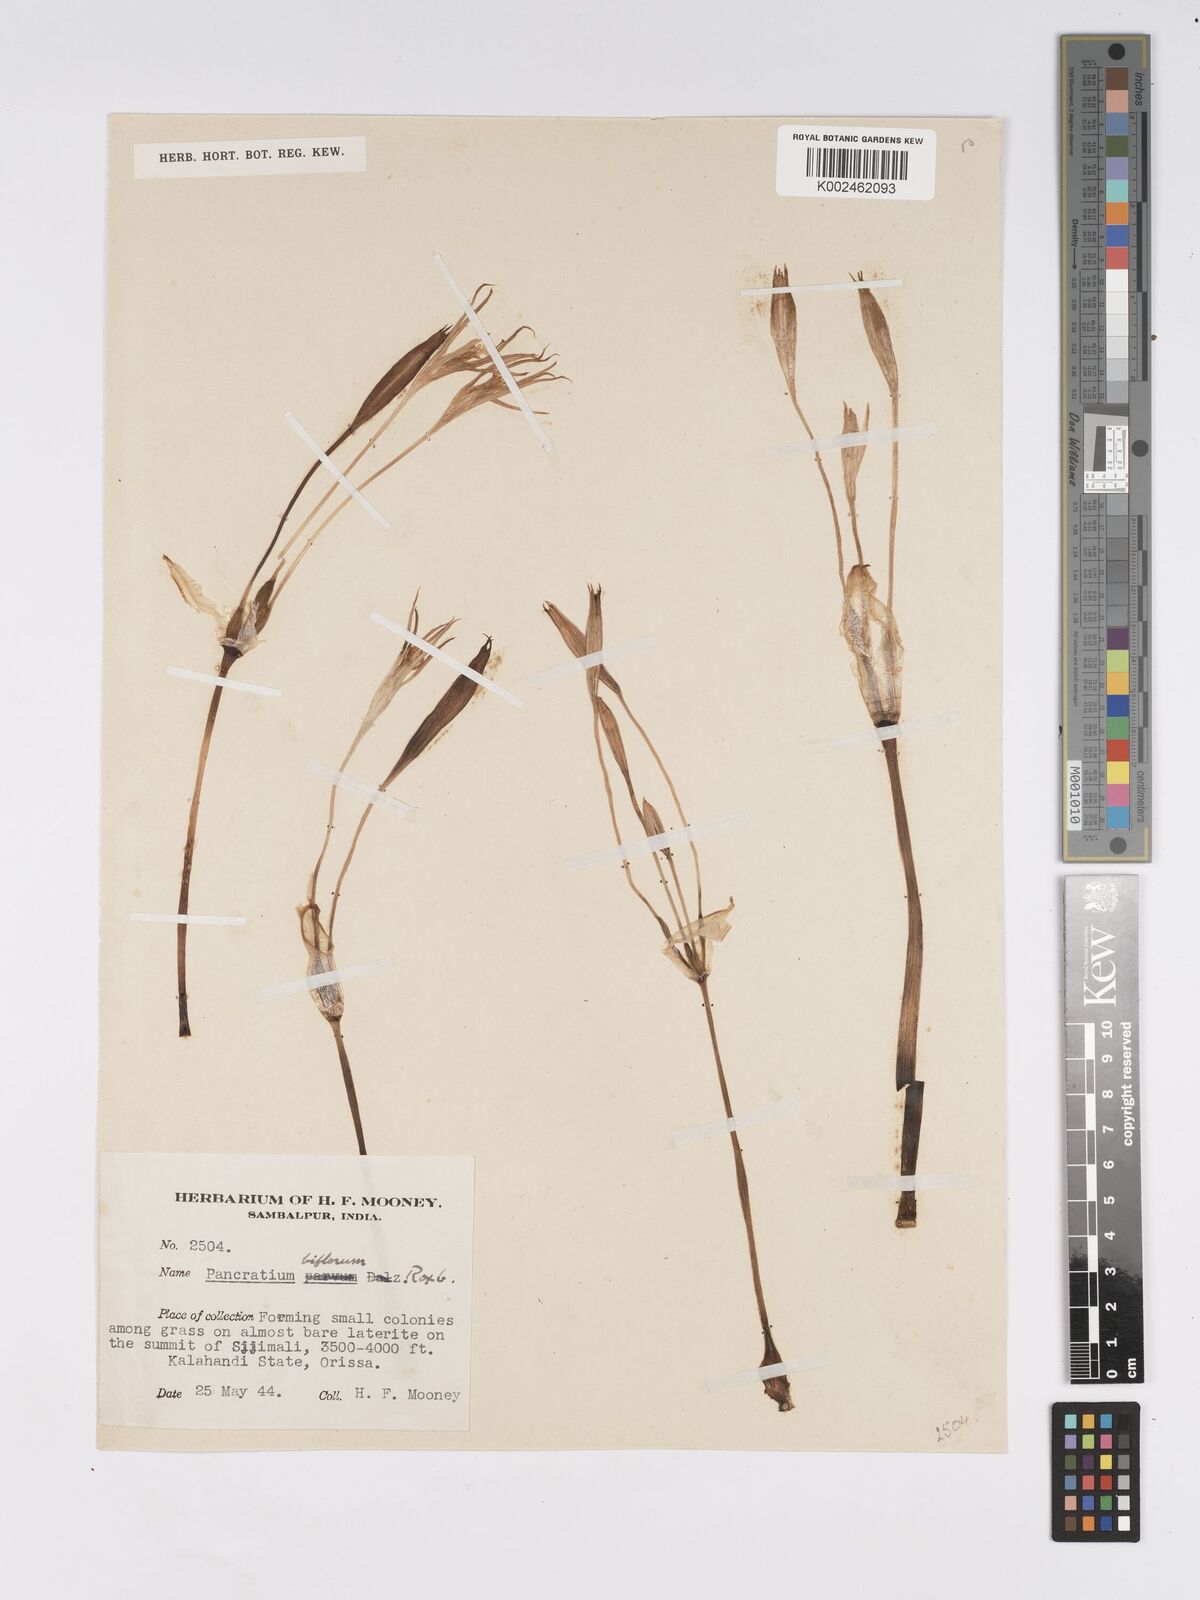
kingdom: Plantae
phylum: Tracheophyta
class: Liliopsida
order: Asparagales
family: Amaryllidaceae
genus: Pancratium
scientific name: Pancratium triflorum
